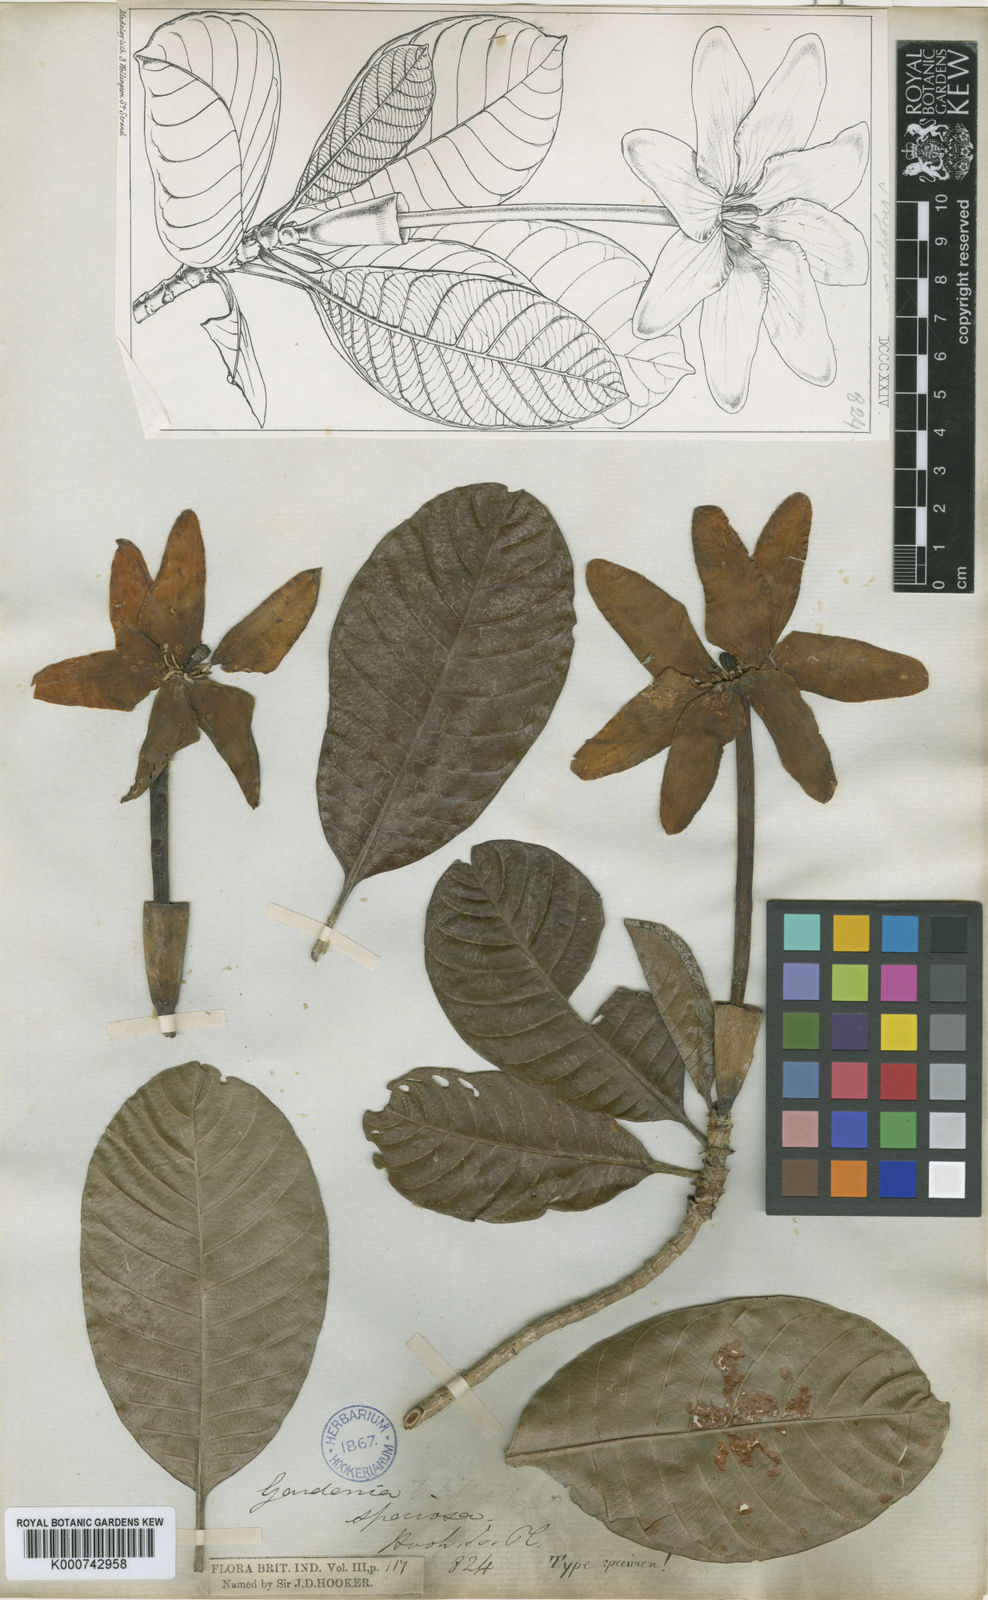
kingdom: Plantae
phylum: Tracheophyta
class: Magnoliopsida
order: Gentianales
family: Rubiaceae
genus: Gardenia
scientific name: Gardenia elata
